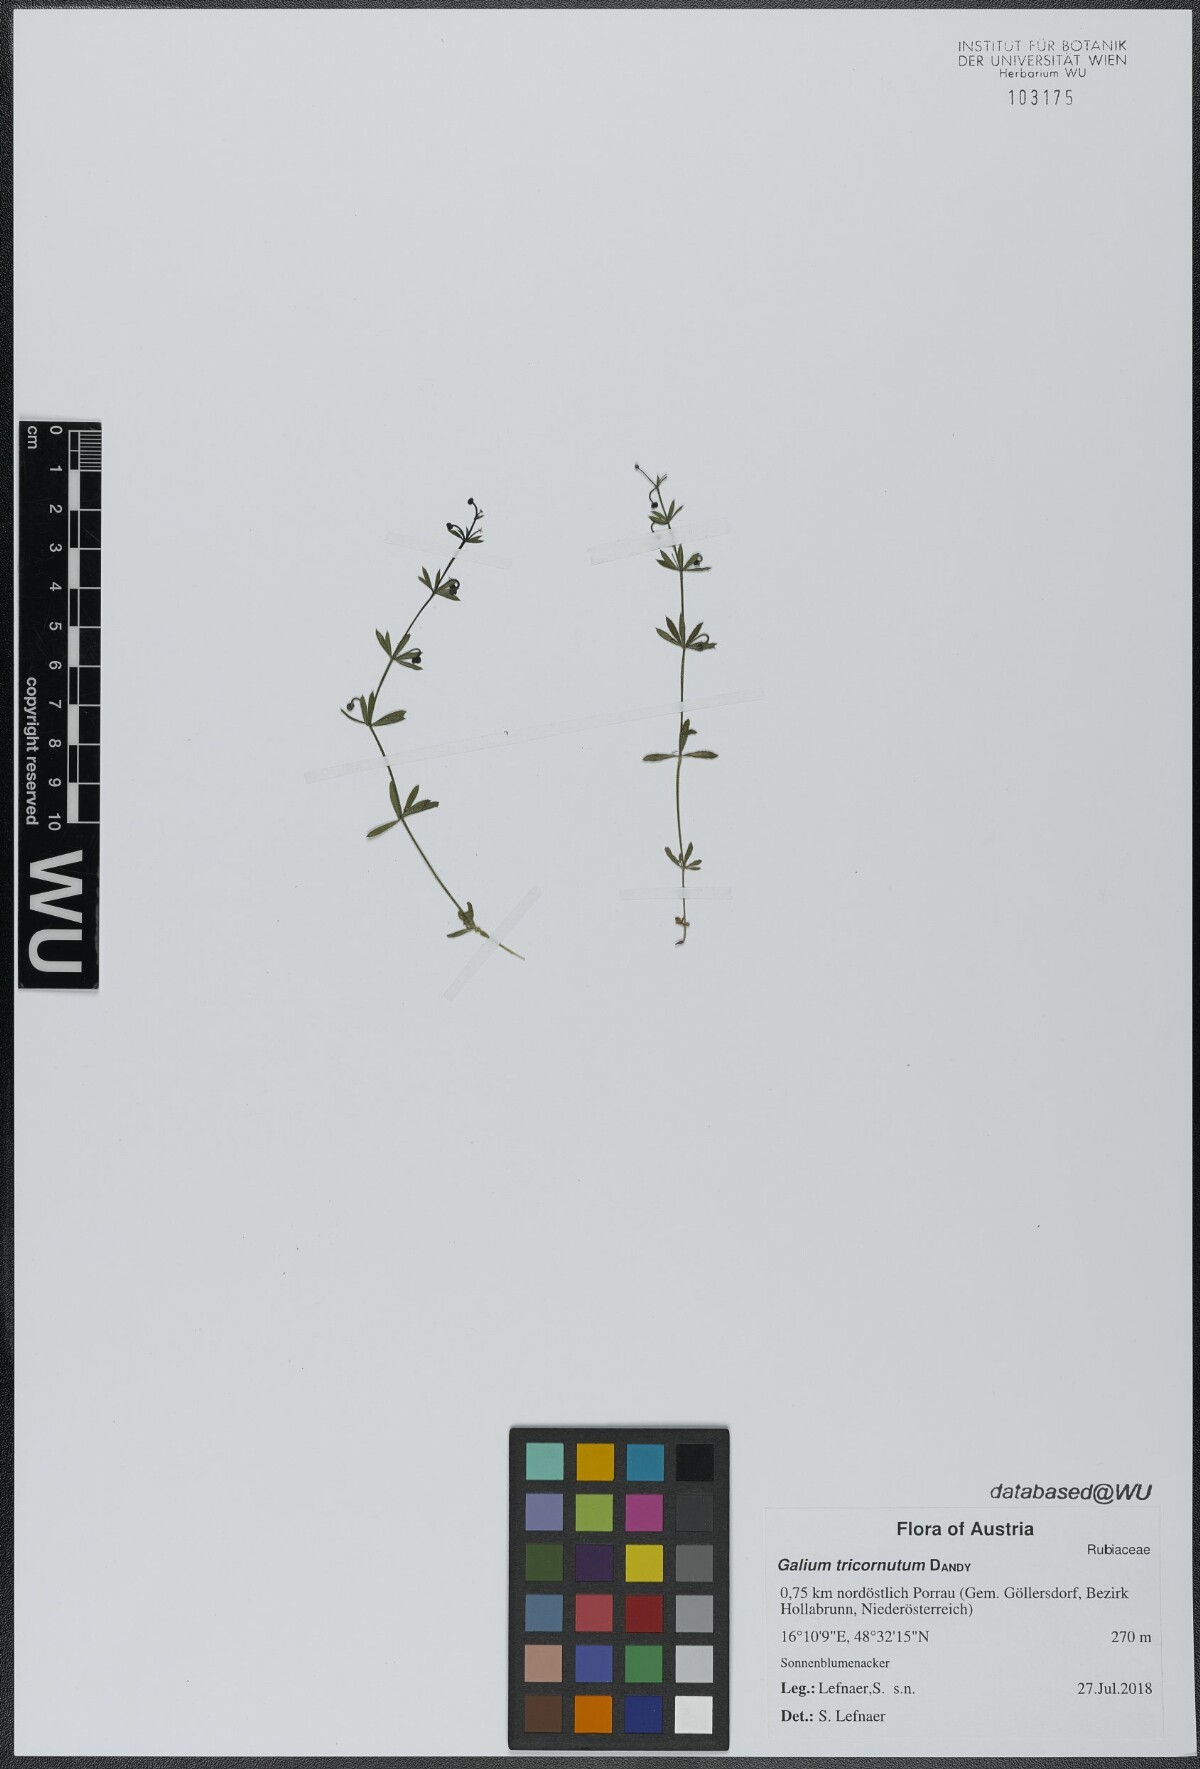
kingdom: Plantae
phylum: Tracheophyta
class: Magnoliopsida
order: Gentianales
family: Rubiaceae
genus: Galium
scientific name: Galium tricornutum
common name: Corn cleavers
